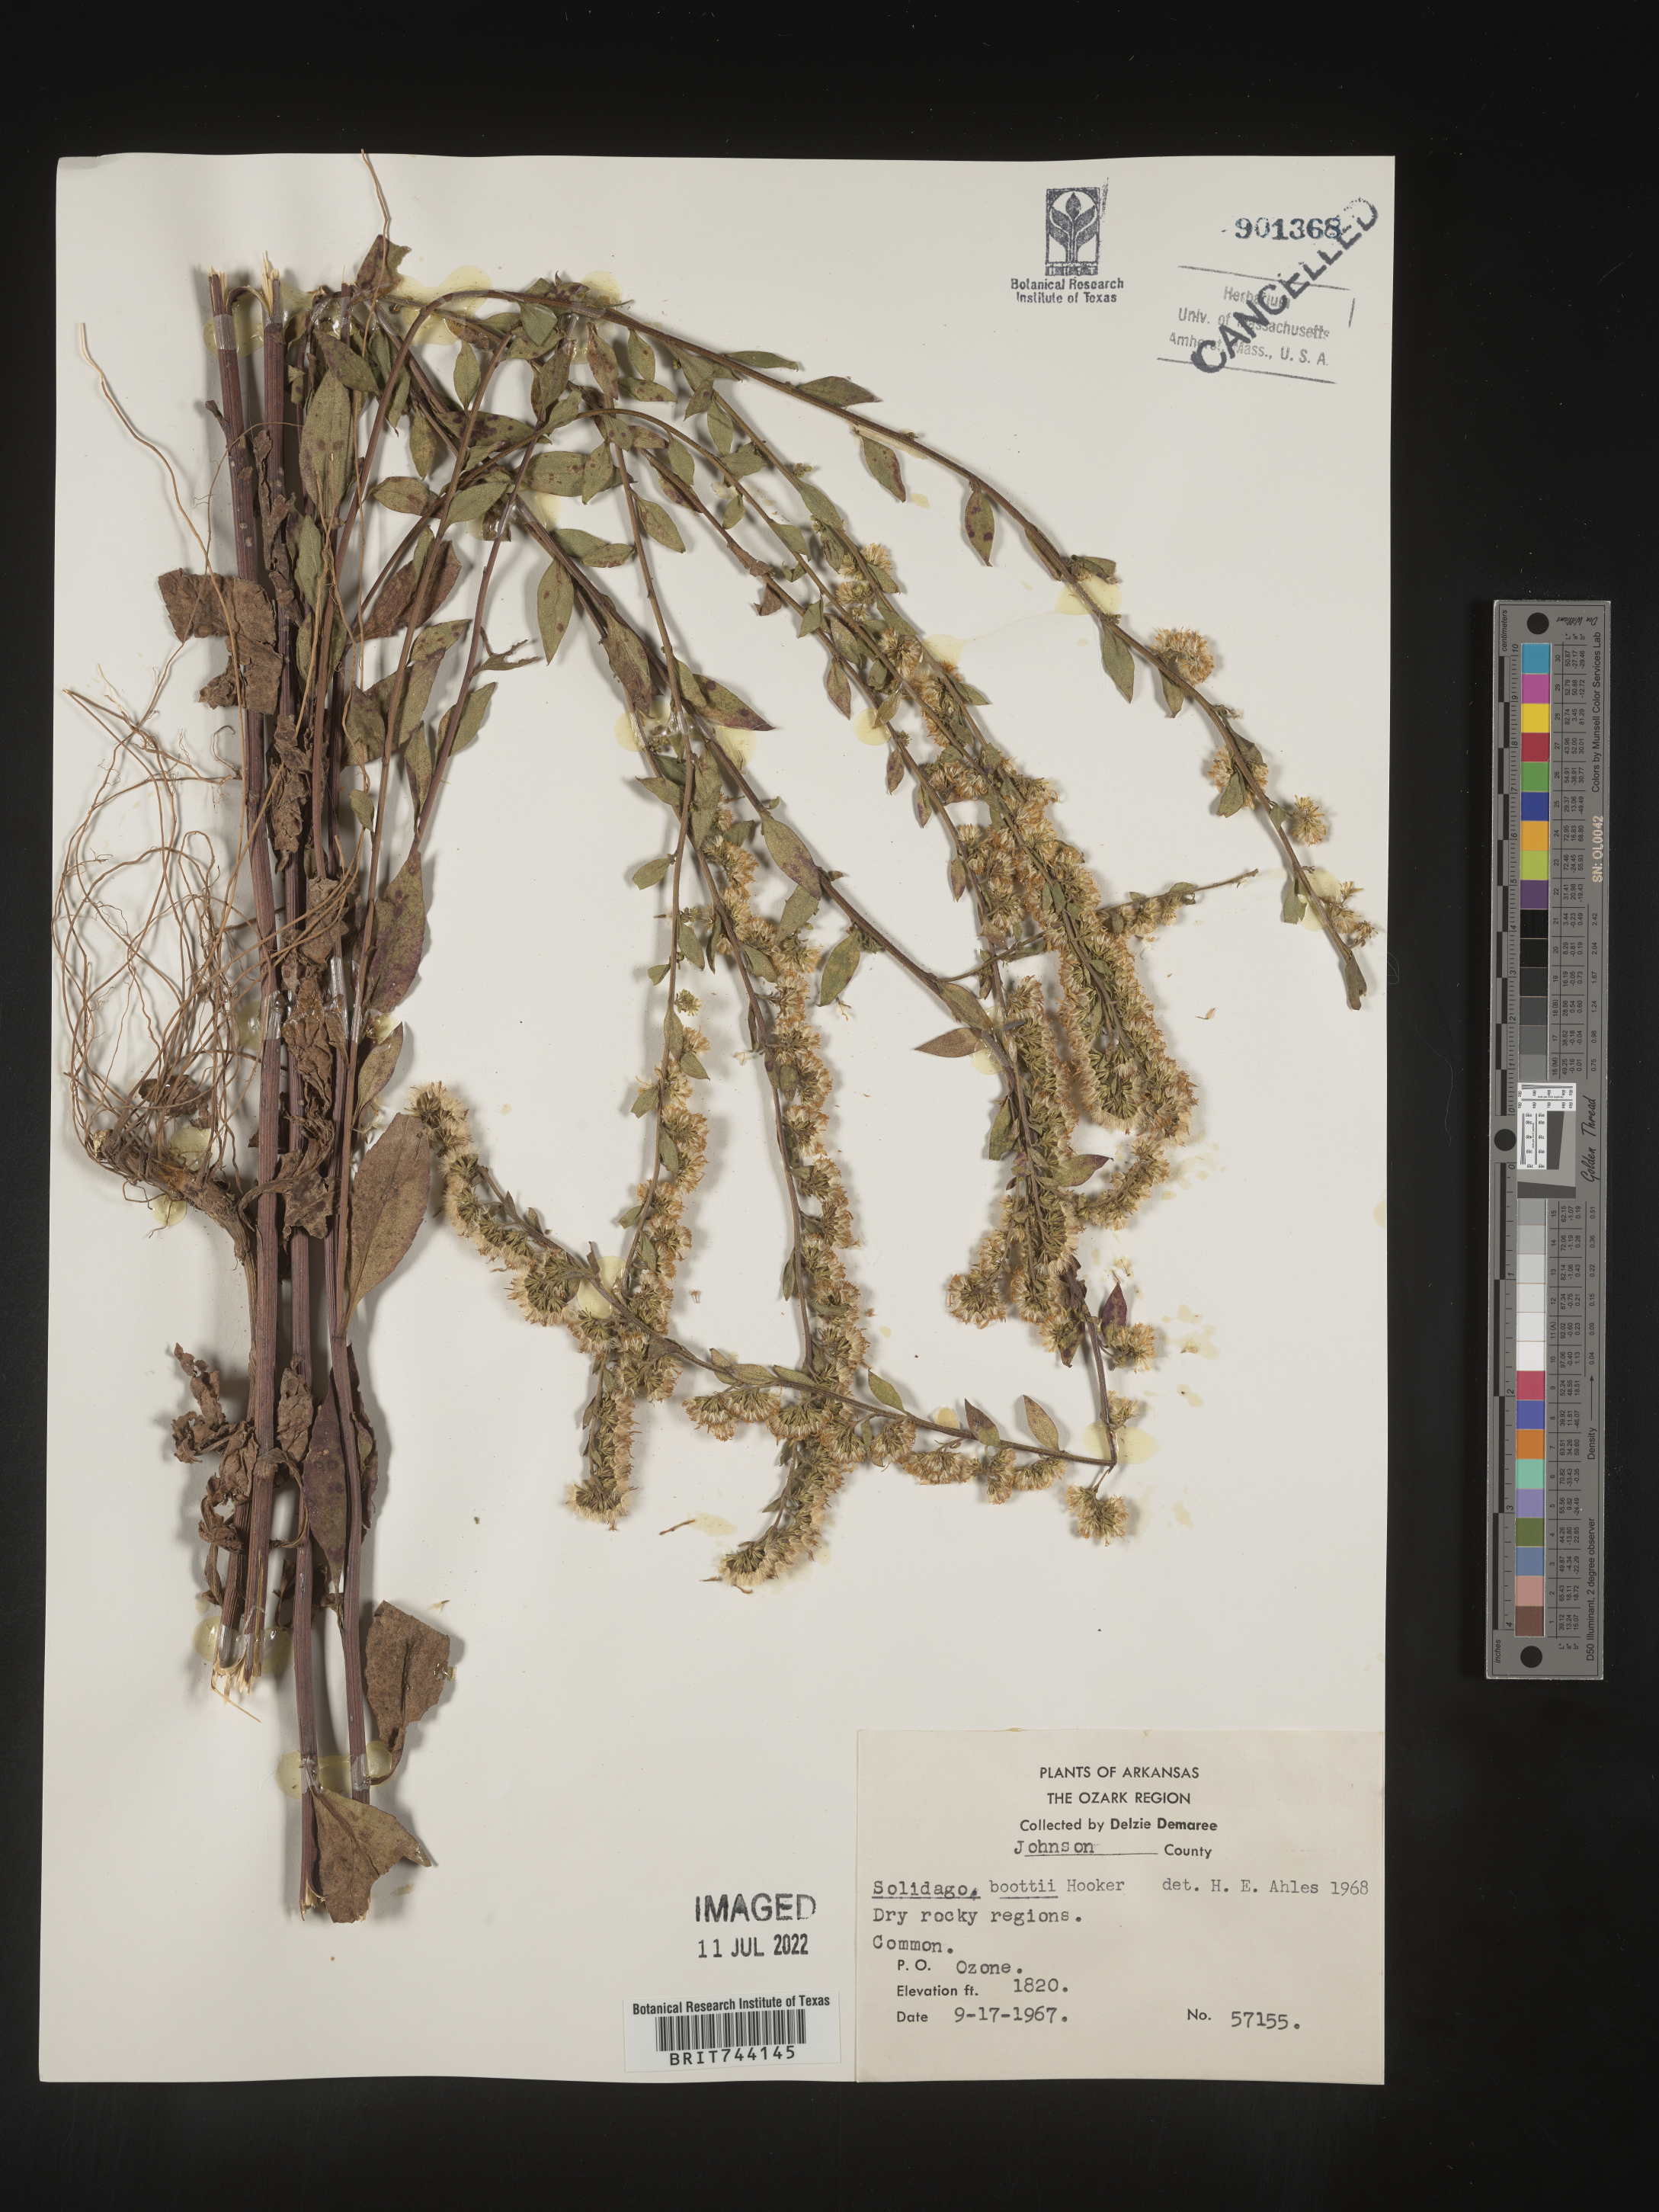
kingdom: Plantae
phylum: Tracheophyta
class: Magnoliopsida
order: Asterales
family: Asteraceae
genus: Solidago
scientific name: Solidago arguta
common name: Atlantic goldenrod
